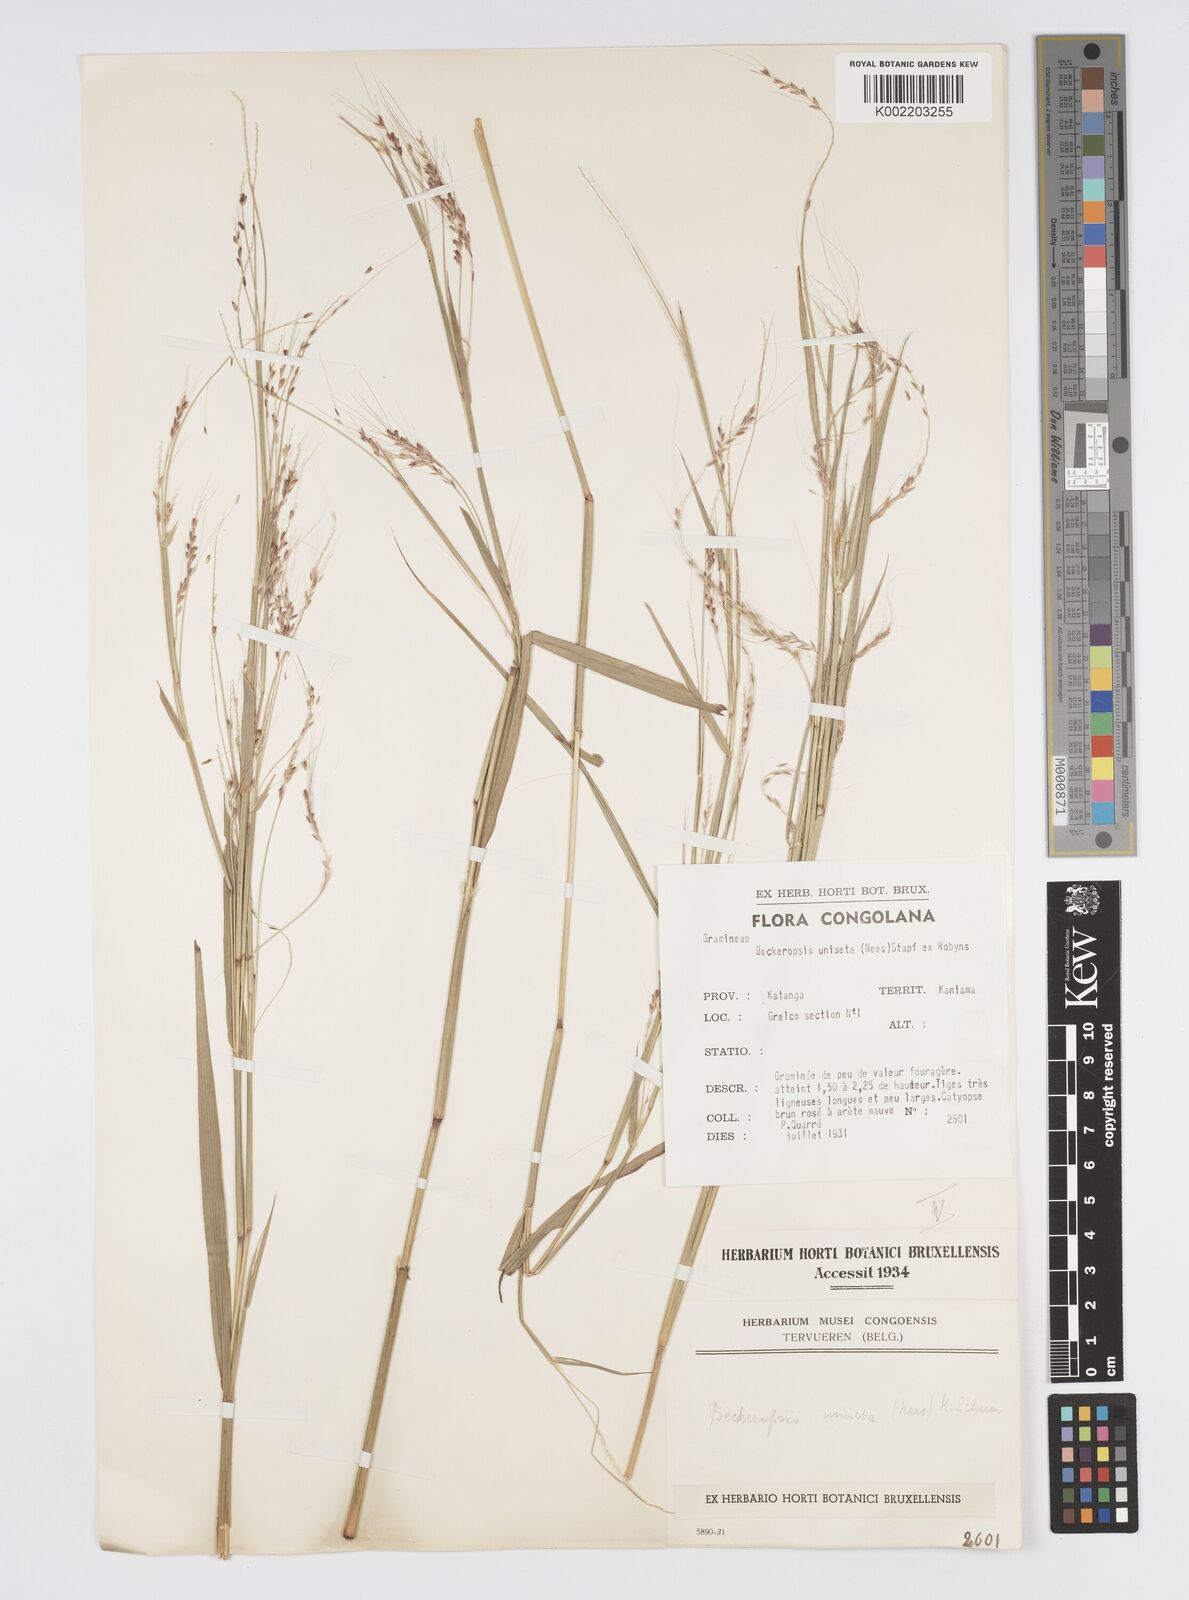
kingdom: Plantae
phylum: Tracheophyta
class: Liliopsida
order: Poales
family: Poaceae
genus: Cenchrus
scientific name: Cenchrus unisetus
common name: Natal grass
